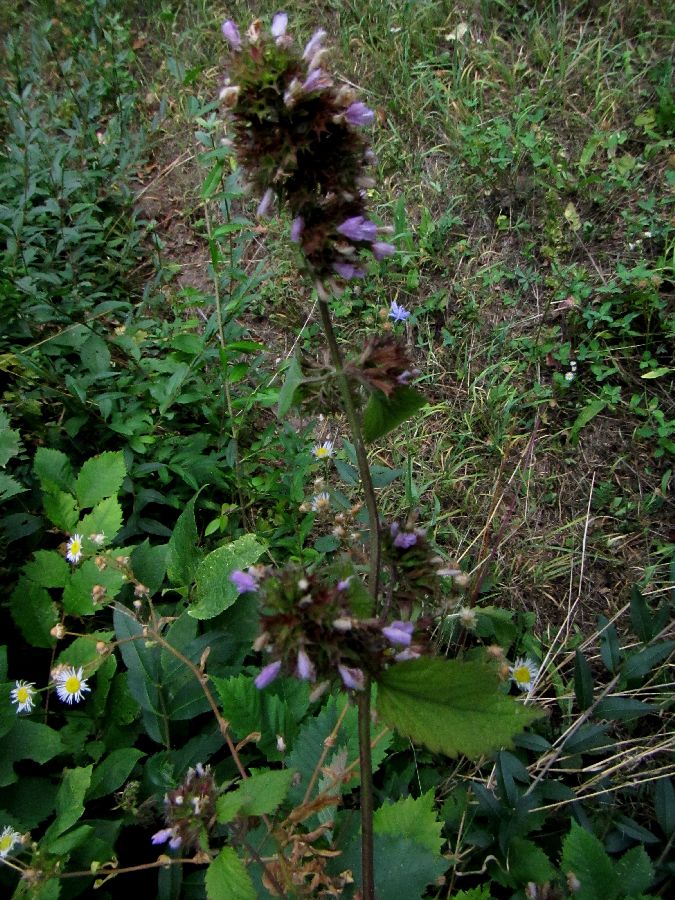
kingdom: Plantae
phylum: Tracheophyta
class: Magnoliopsida
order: Lamiales
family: Lamiaceae
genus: Ballota
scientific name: Ballota nigra
